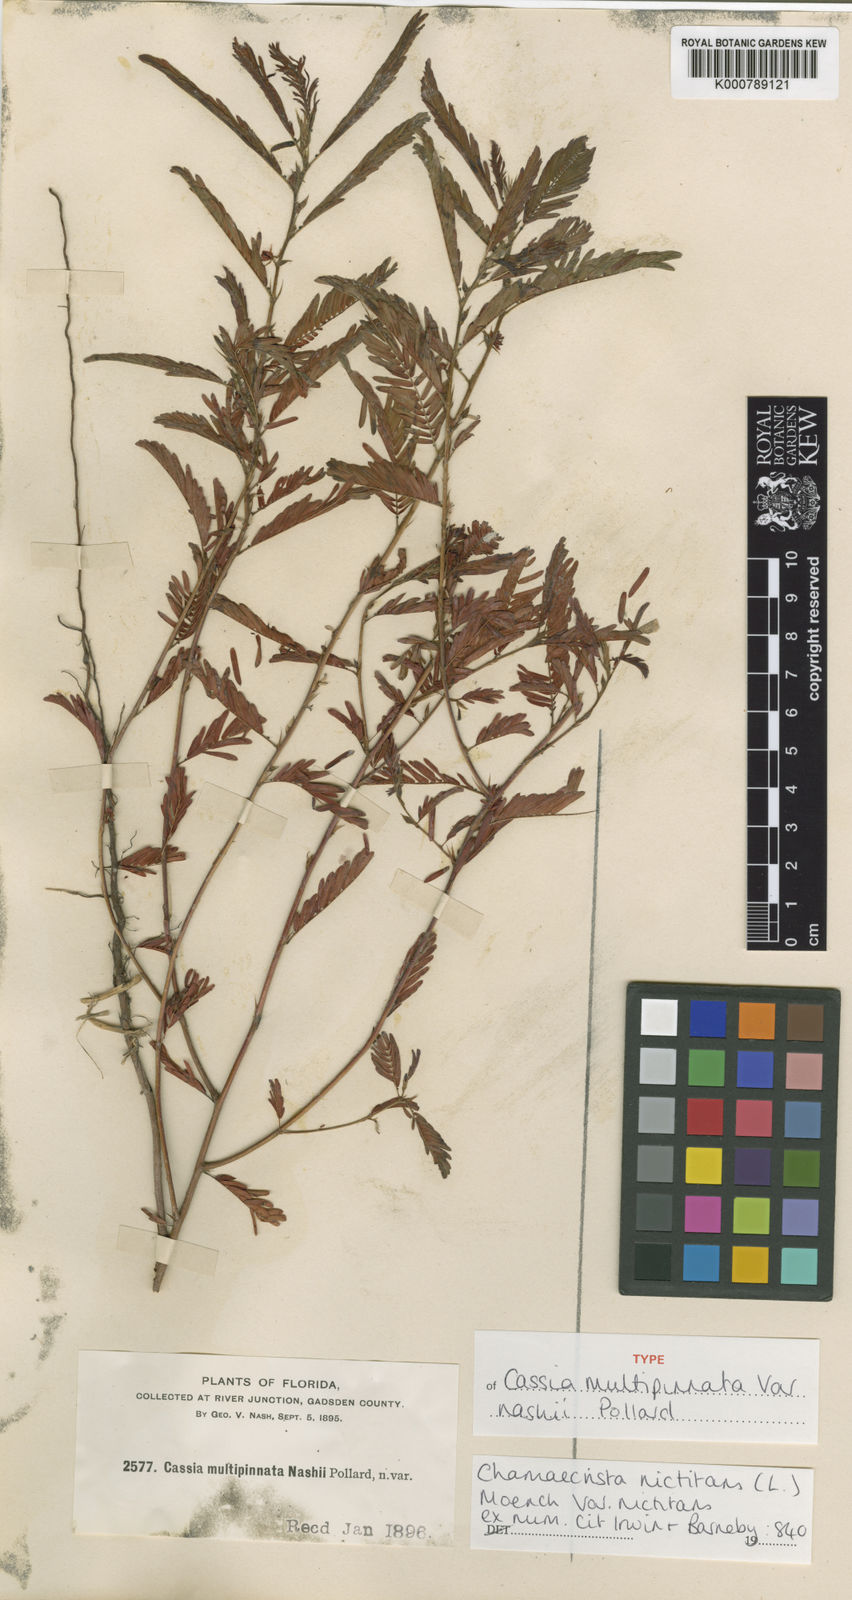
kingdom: Plantae
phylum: Tracheophyta
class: Magnoliopsida
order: Fabales
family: Fabaceae
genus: Chamaecrista
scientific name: Chamaecrista nictitans
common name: Sensitive cassia
